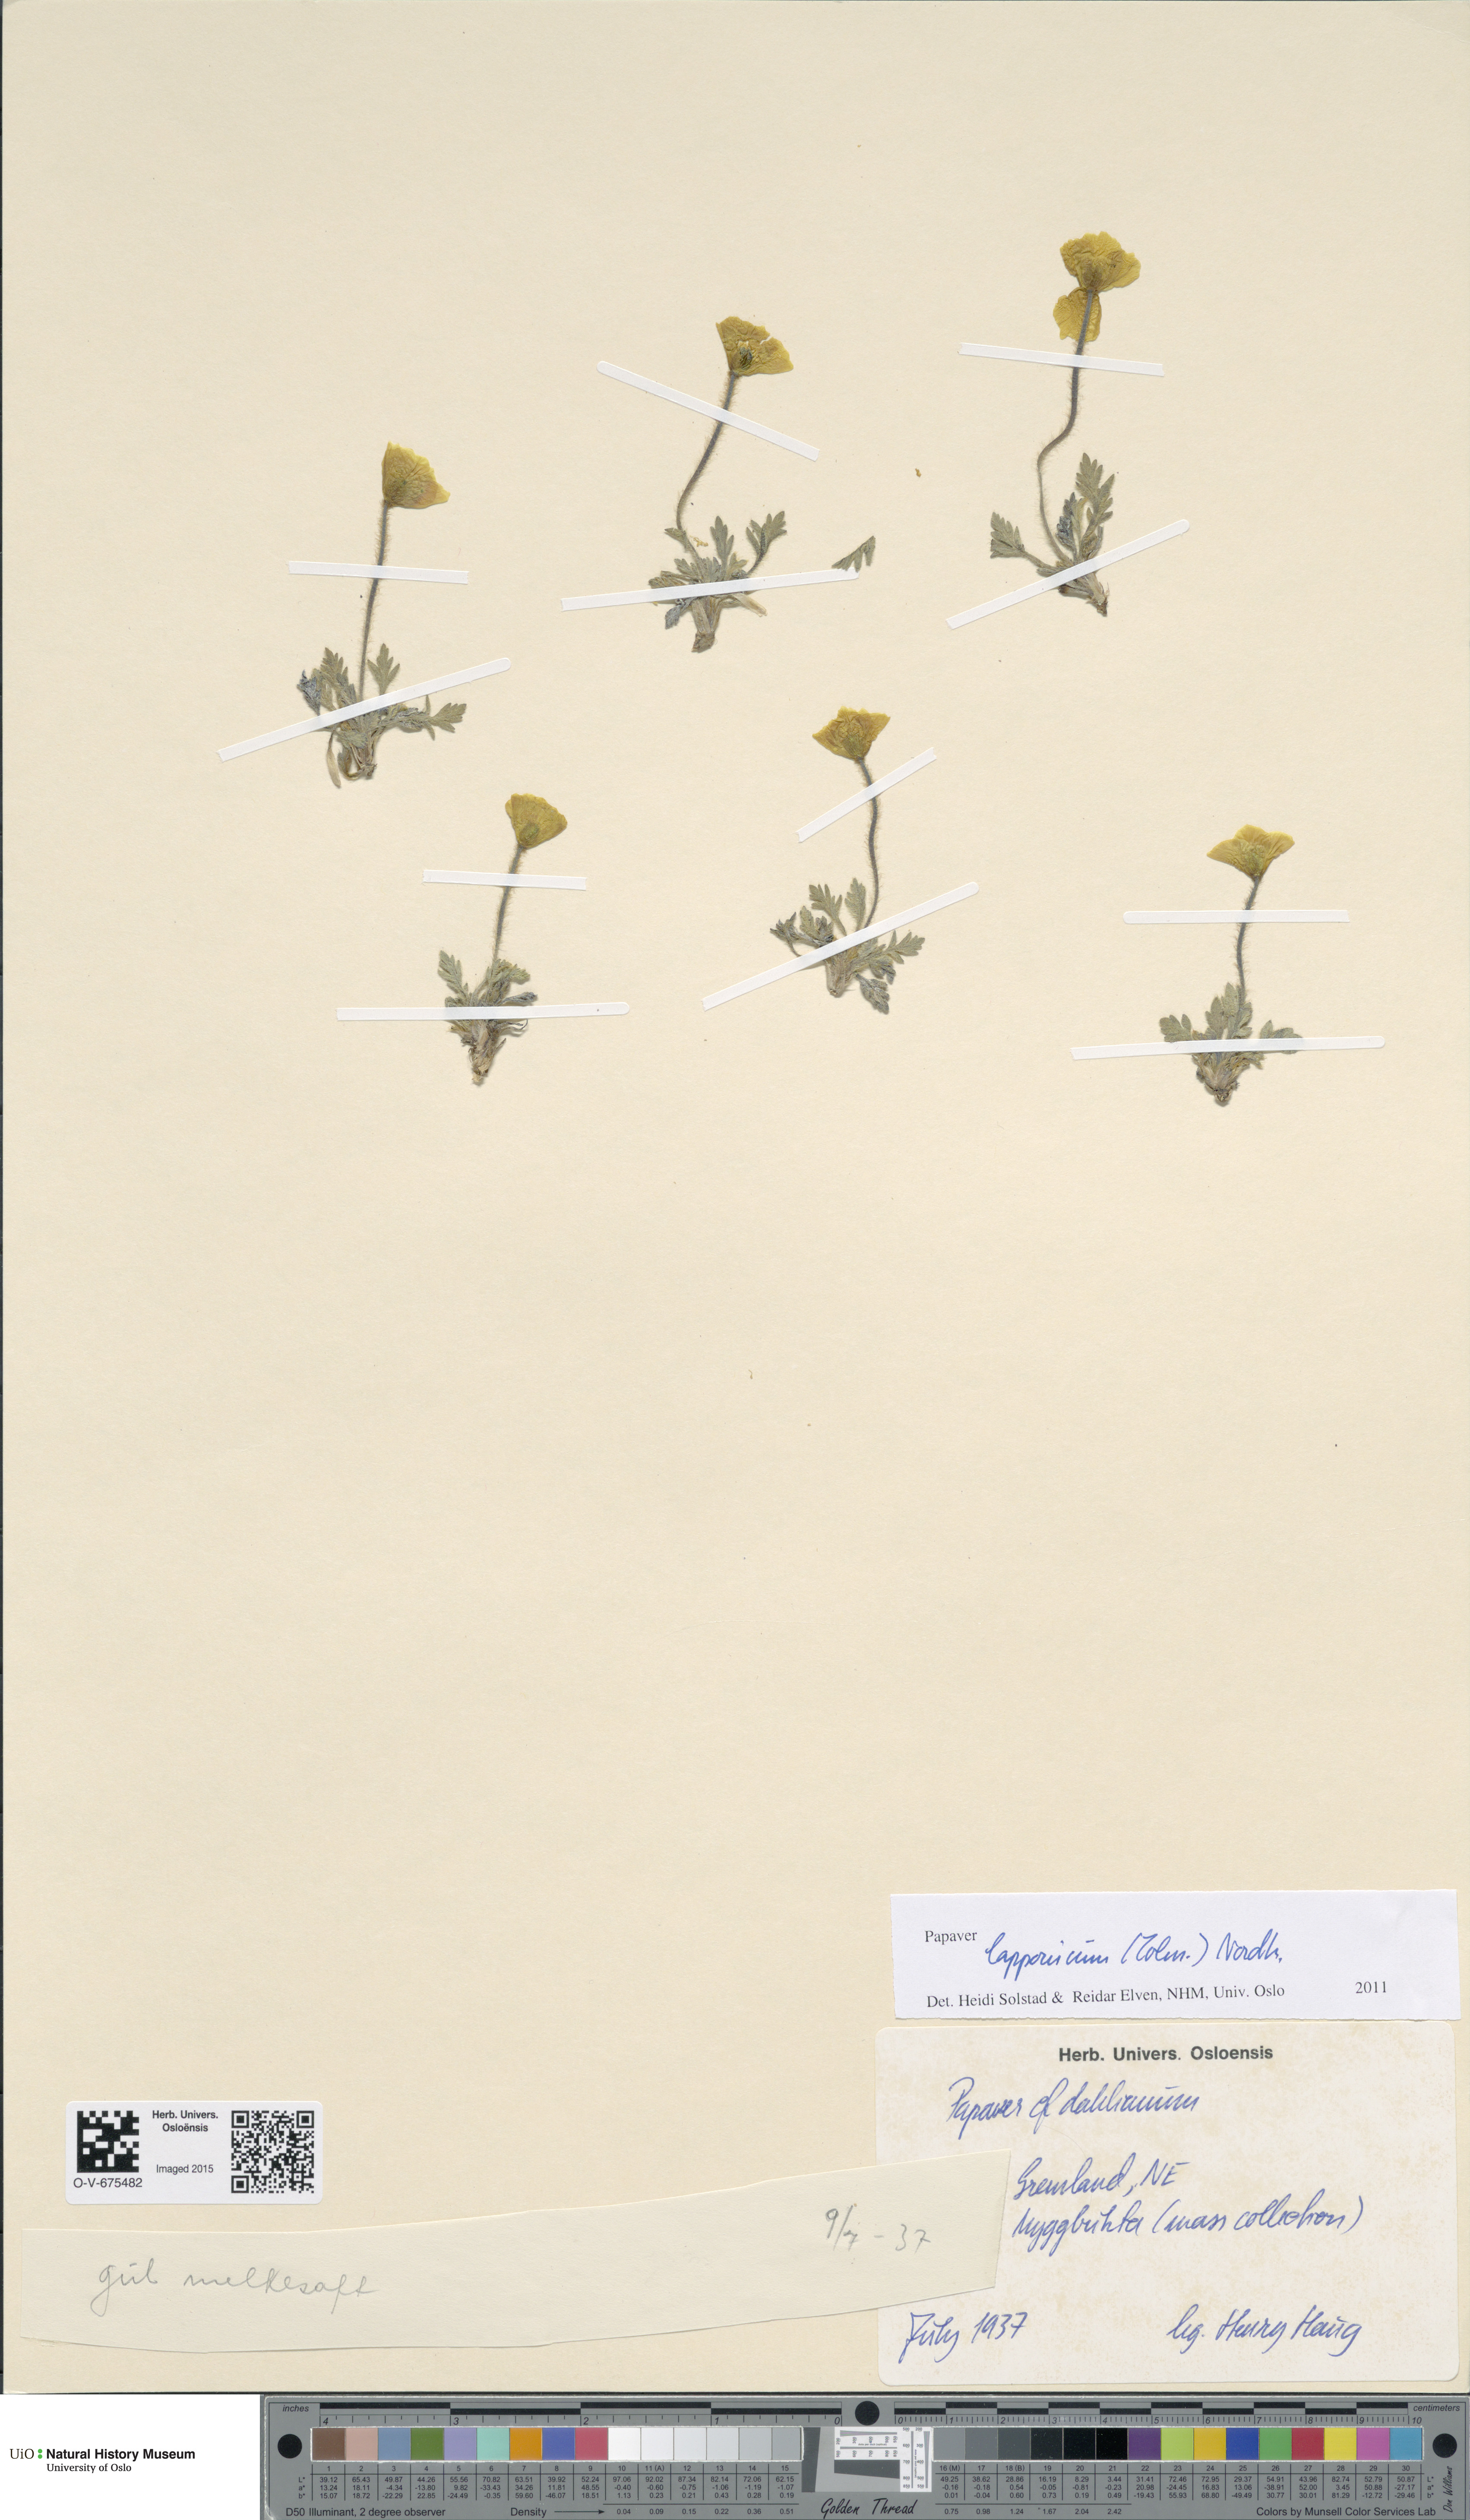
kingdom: Plantae
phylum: Tracheophyta
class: Magnoliopsida
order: Ranunculales
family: Papaveraceae
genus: Papaver
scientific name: Papaver lapponicum
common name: Lapland poppy
